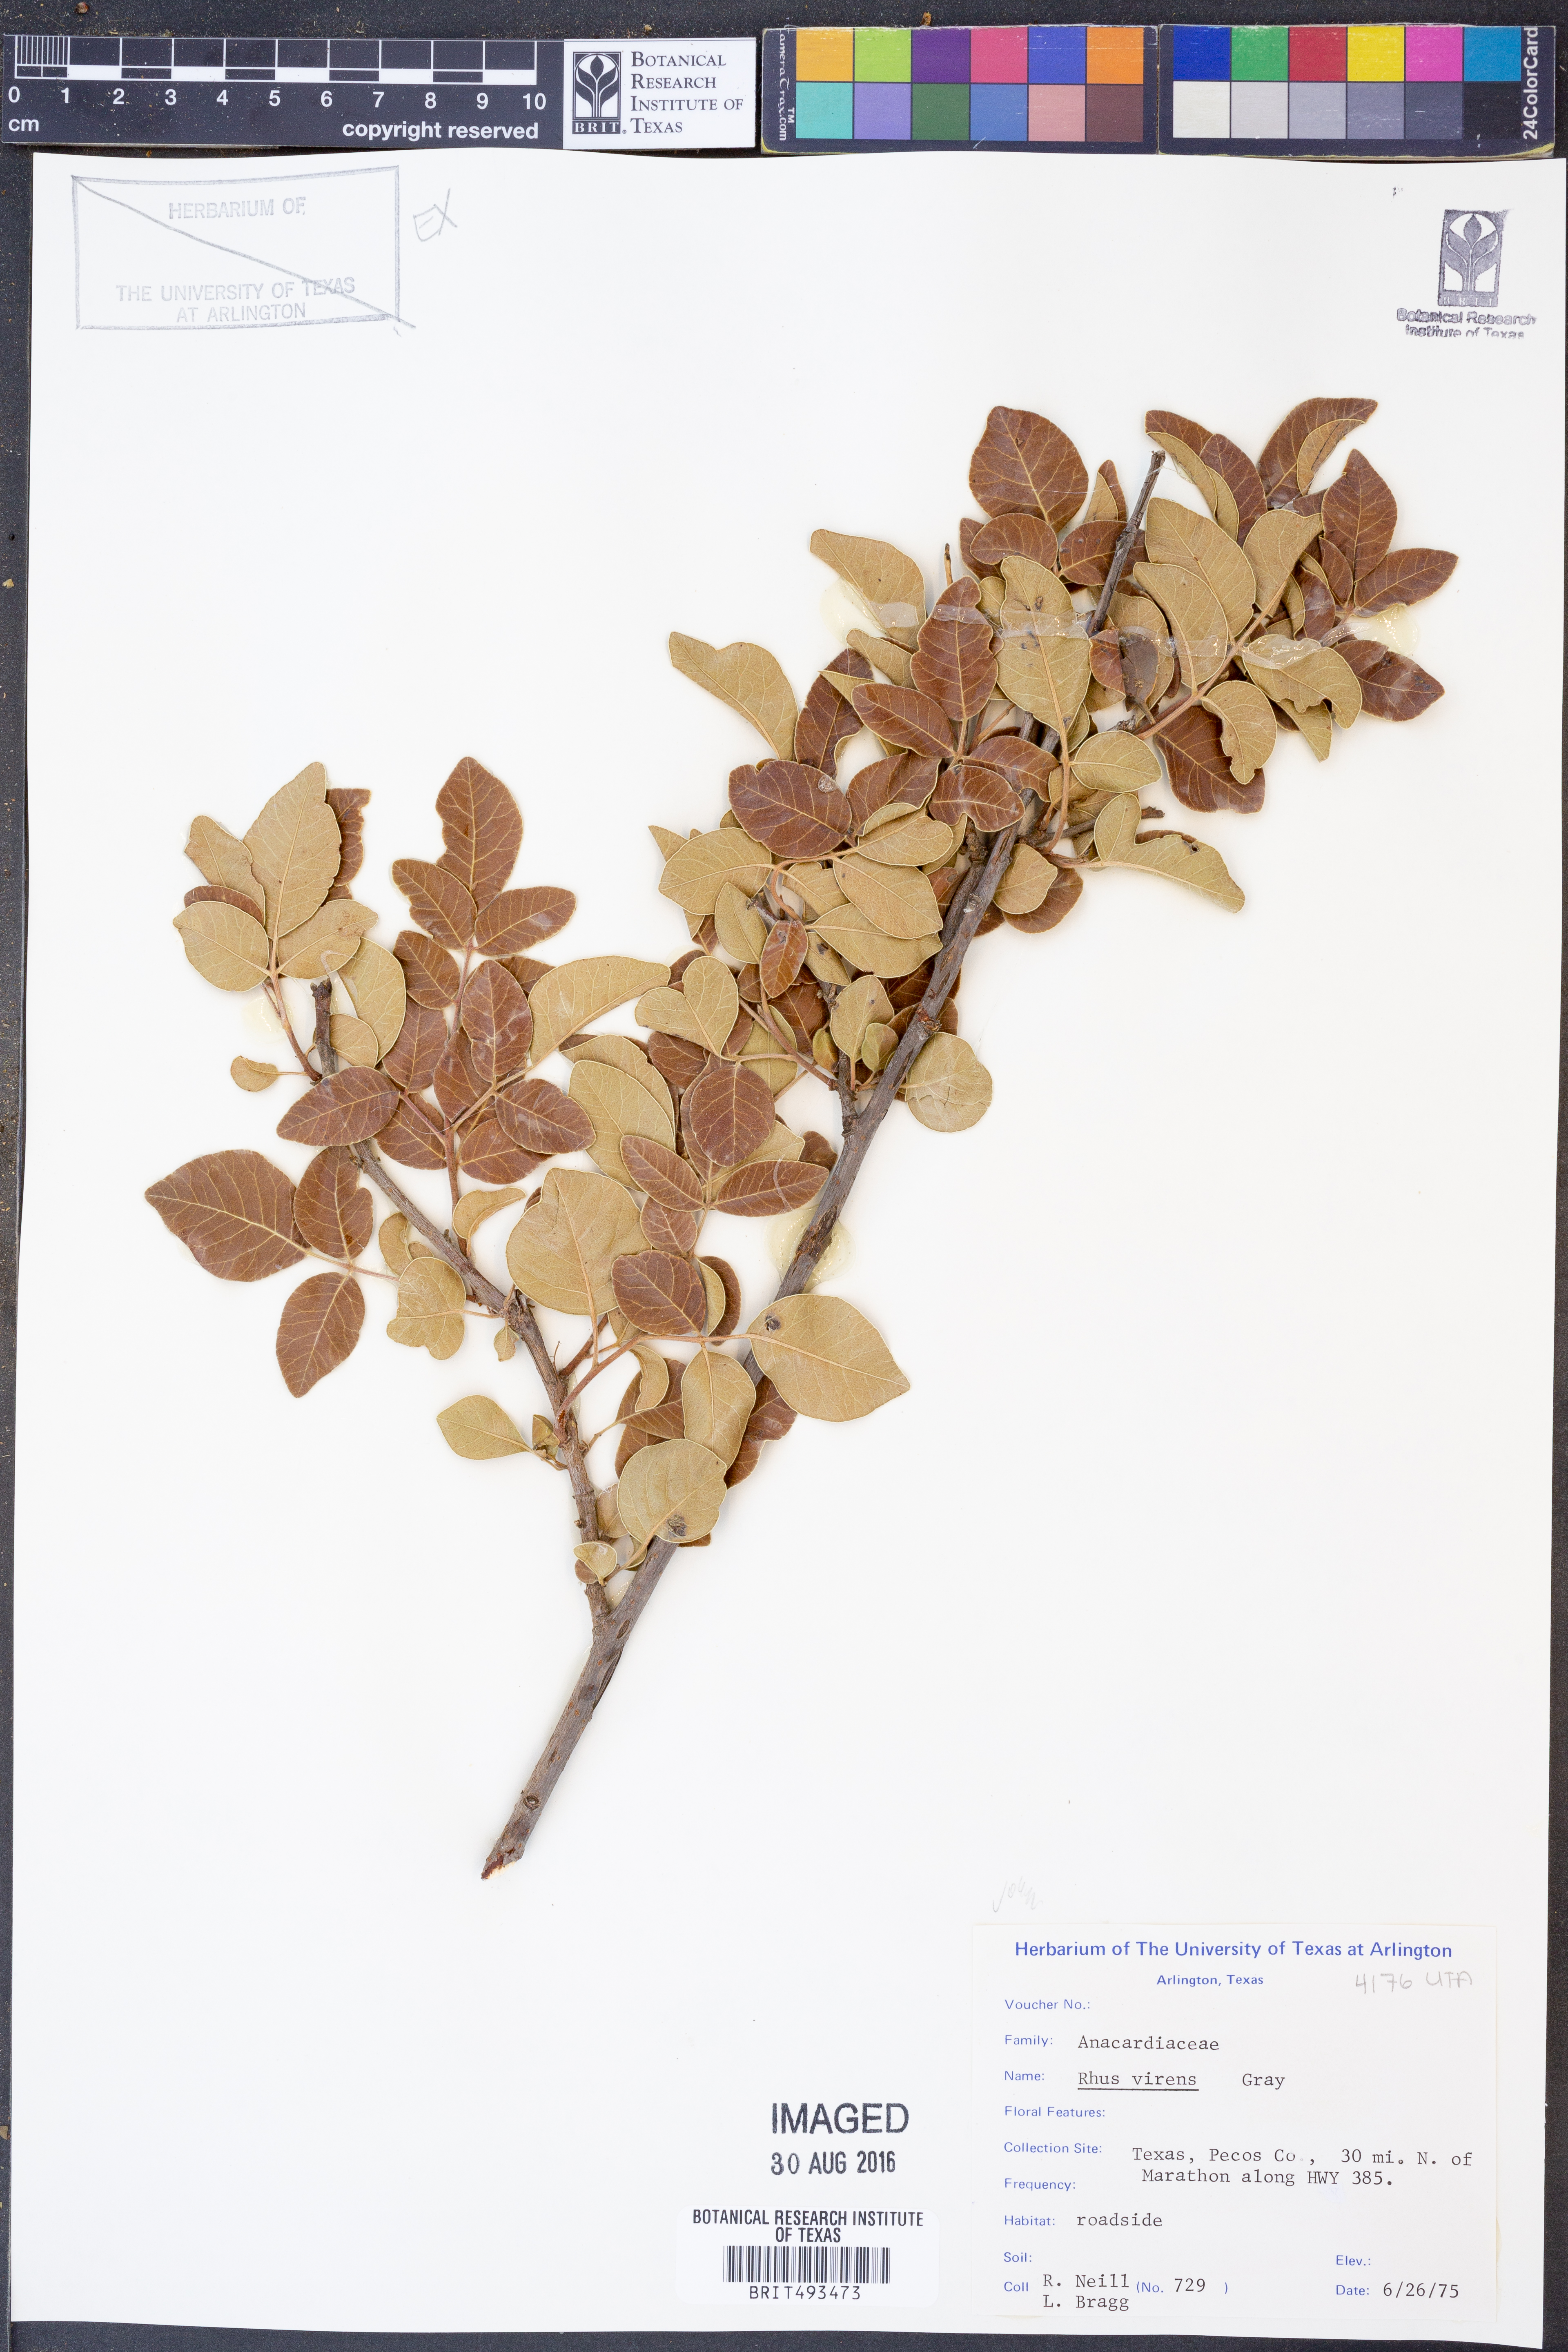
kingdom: Plantae
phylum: Tracheophyta
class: Magnoliopsida
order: Sapindales
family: Anacardiaceae
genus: Rhus
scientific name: Rhus virens
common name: Evergreen sumac
